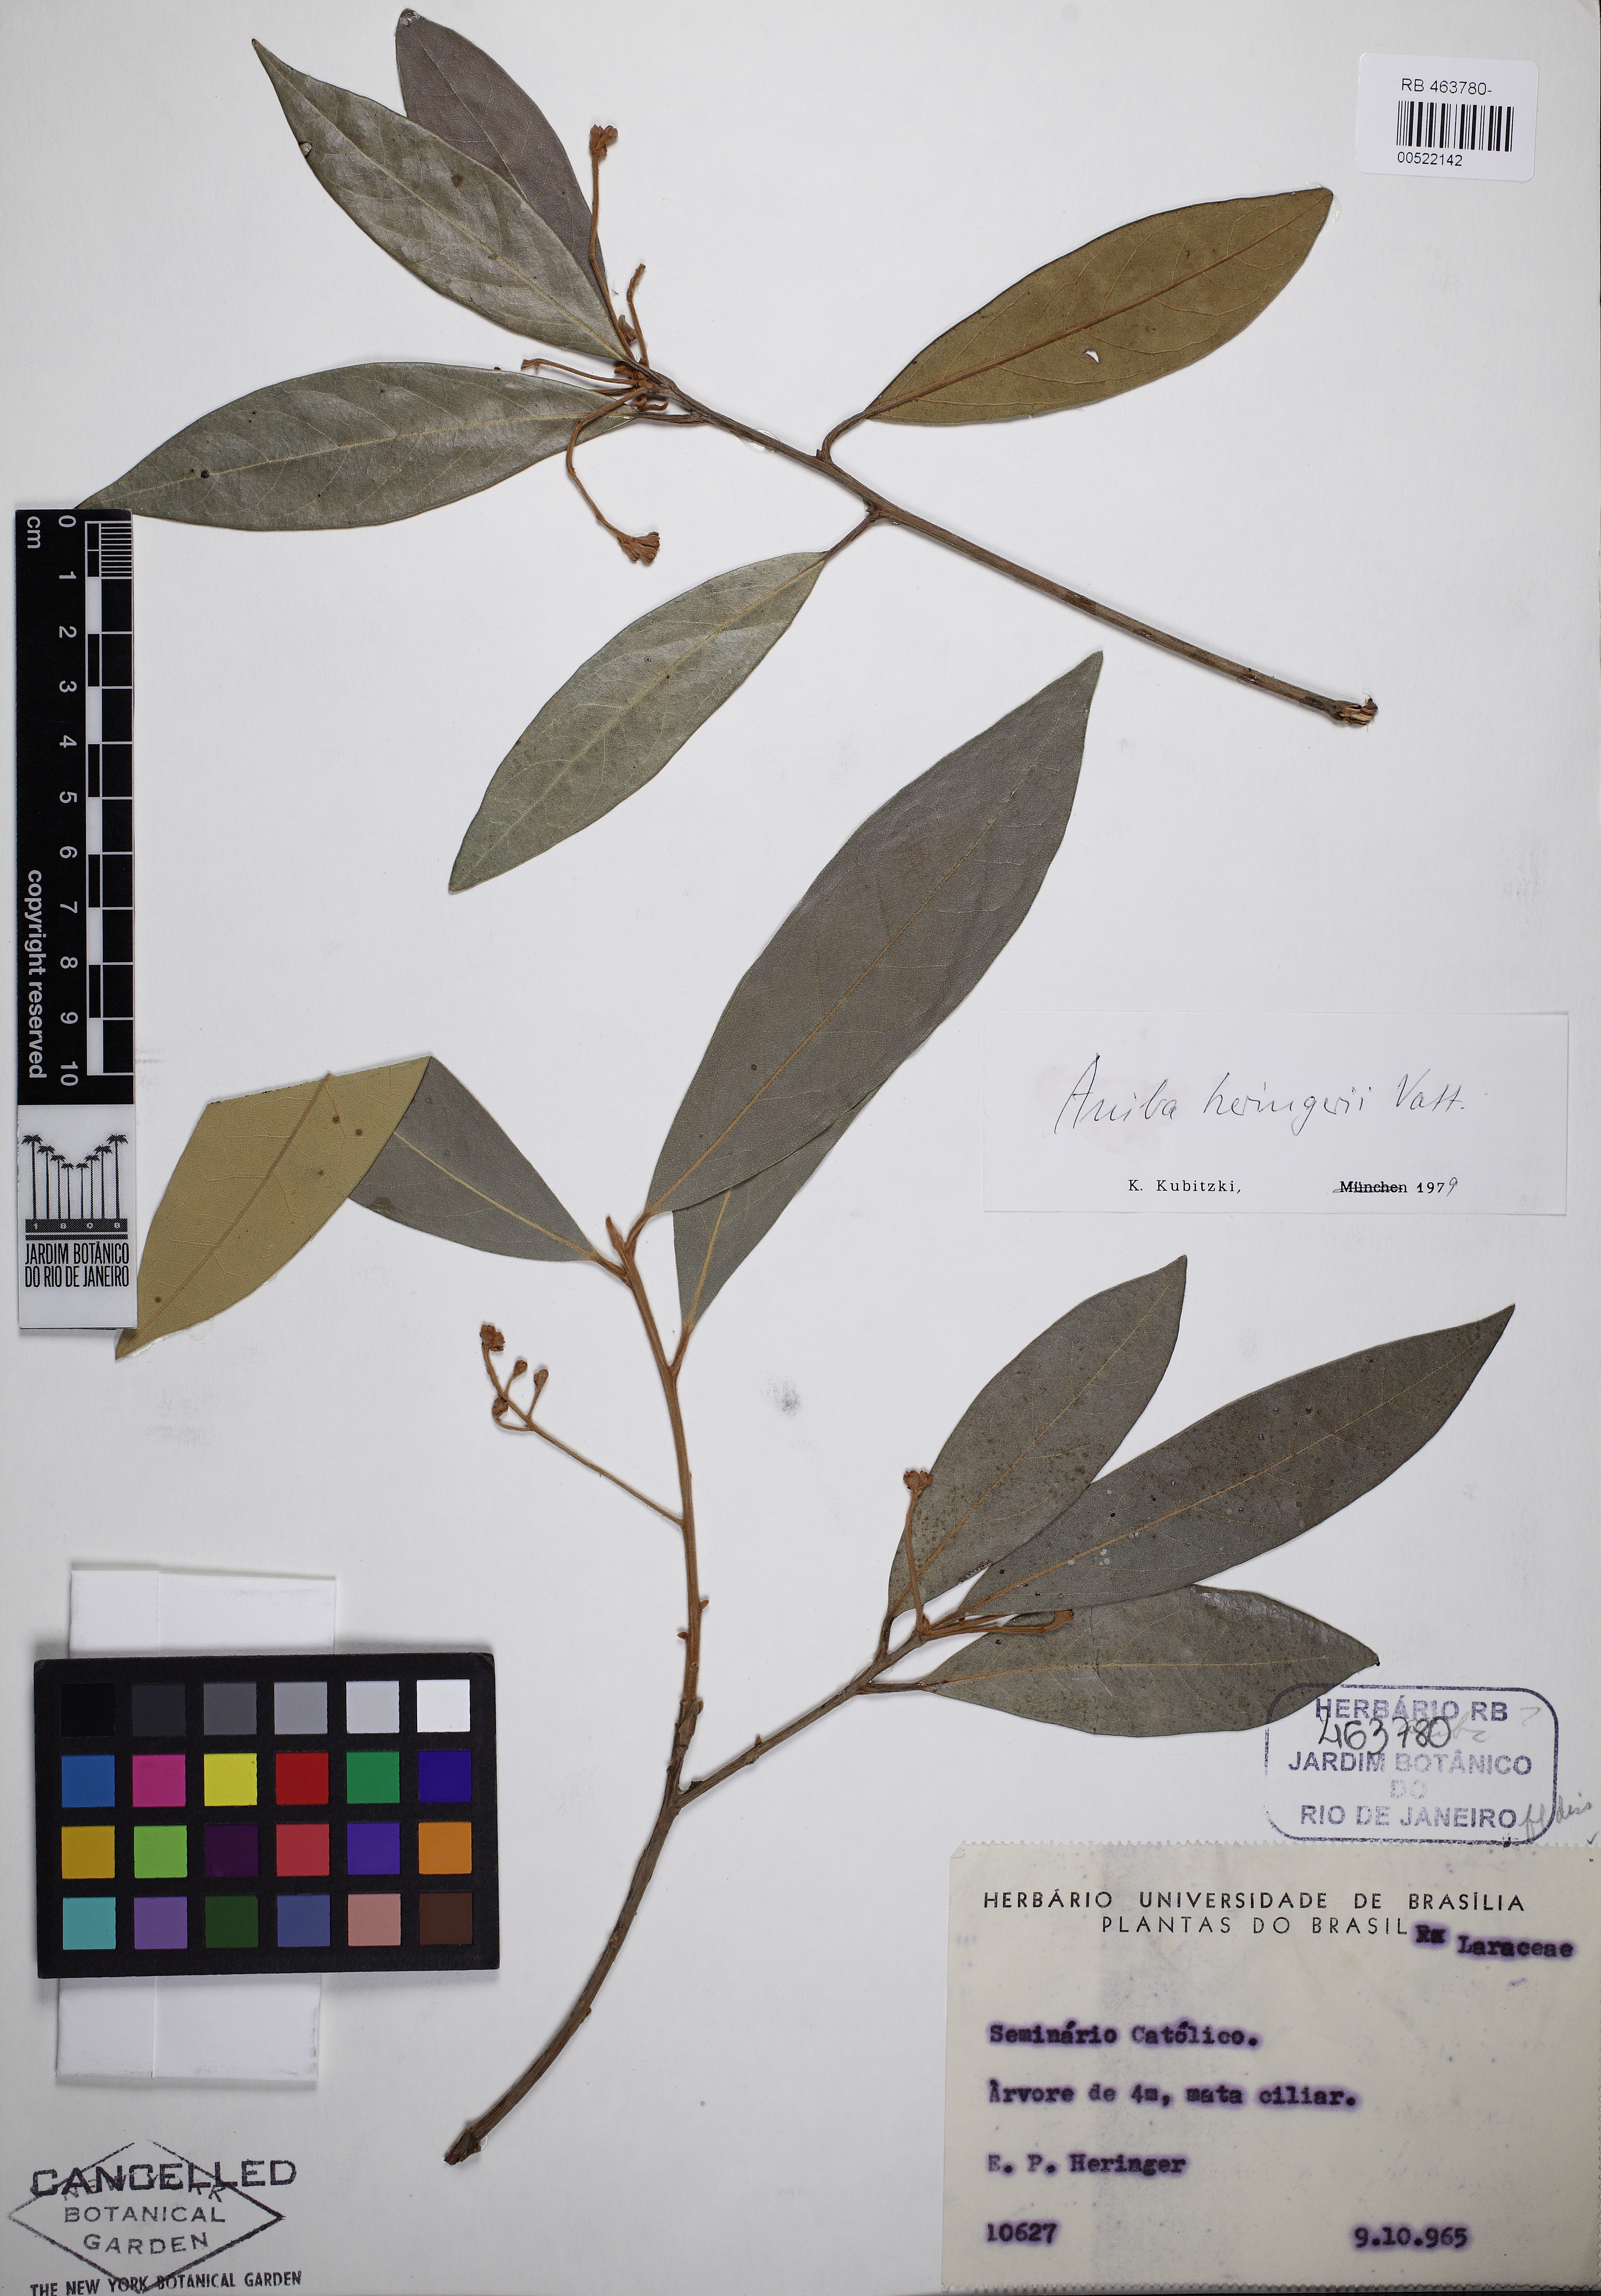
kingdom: Plantae
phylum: Tracheophyta
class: Magnoliopsida
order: Laurales
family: Lauraceae
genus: Aniba
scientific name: Aniba heringeri
